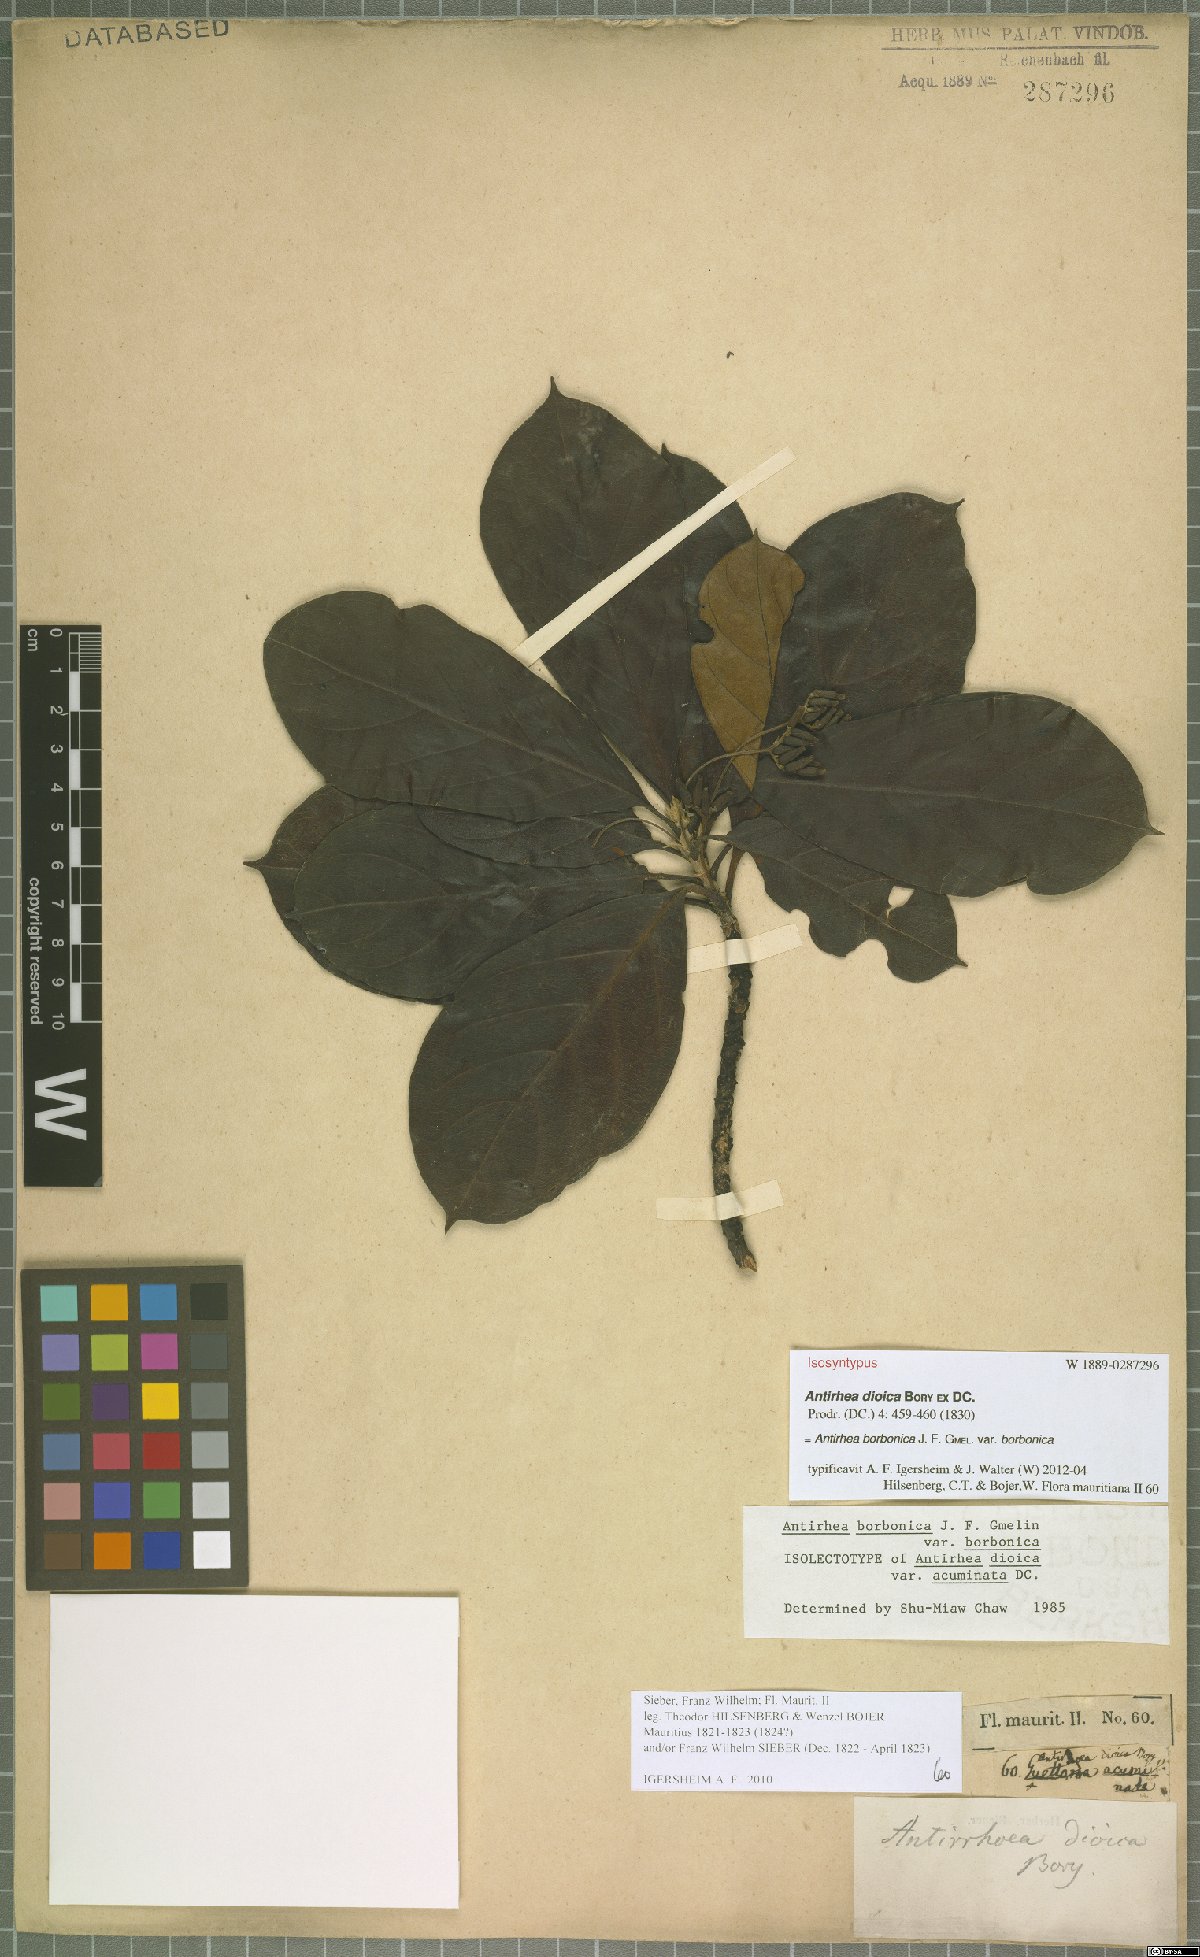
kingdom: Plantae
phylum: Tracheophyta
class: Magnoliopsida
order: Gentianales
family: Rubiaceae
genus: Antirhea
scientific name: Antirhea borbonica
